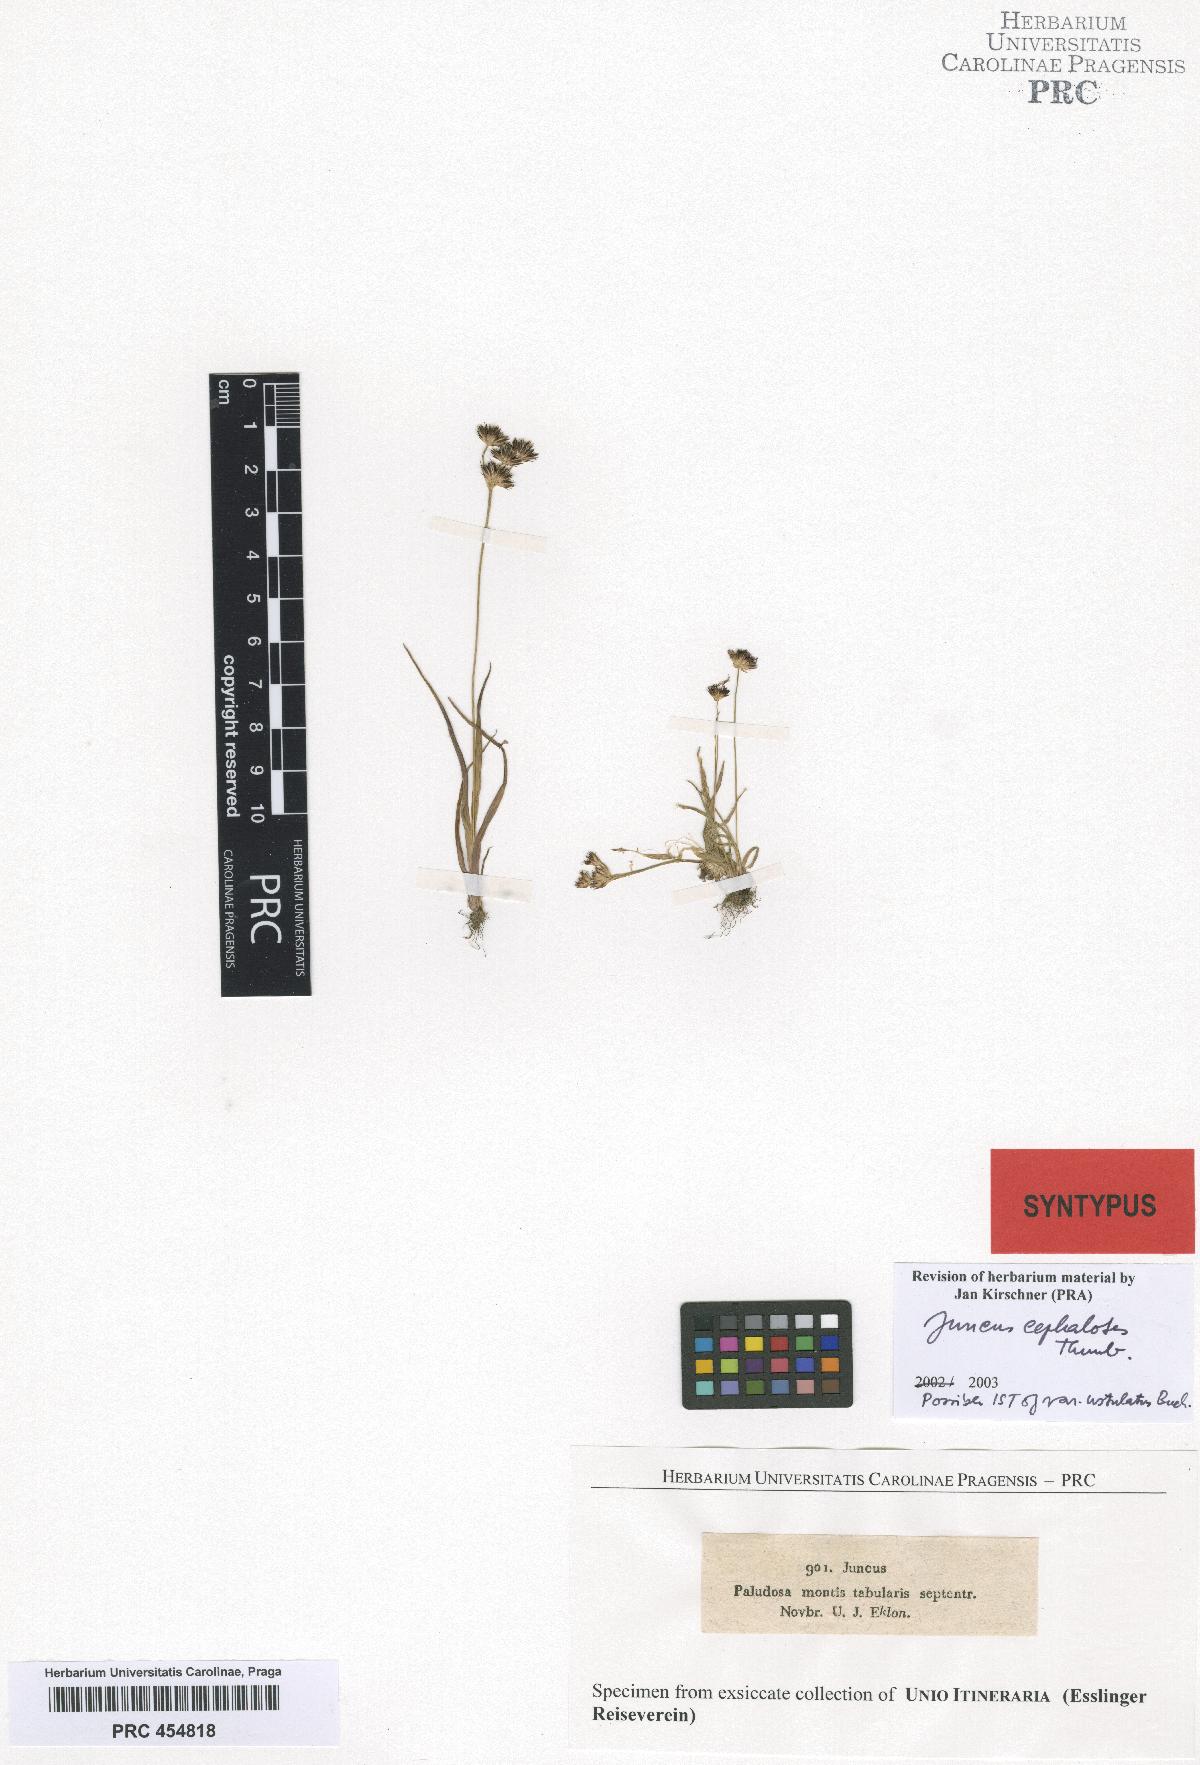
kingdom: Plantae
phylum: Tracheophyta
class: Liliopsida
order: Poales
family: Juncaceae
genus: Juncus
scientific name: Juncus cephalotes
